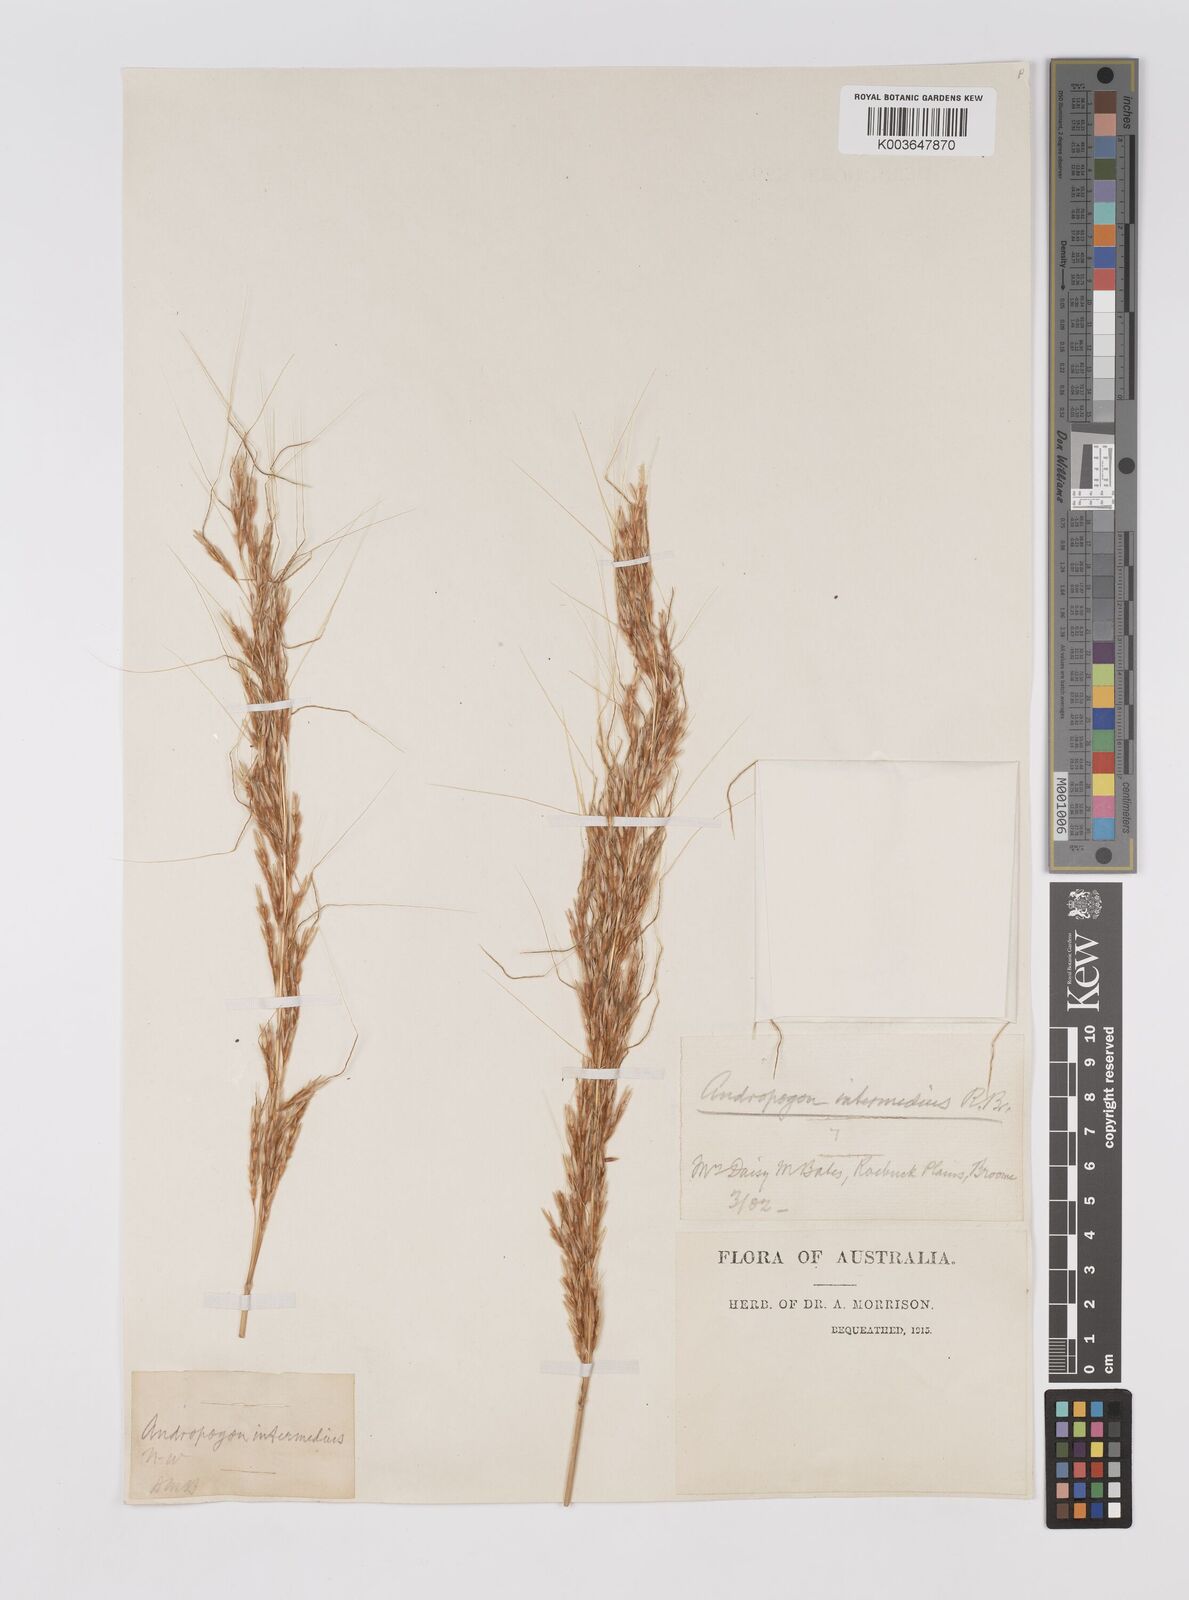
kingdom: Plantae
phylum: Tracheophyta
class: Liliopsida
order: Poales
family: Poaceae
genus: Sarga
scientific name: Sarga plumosa
